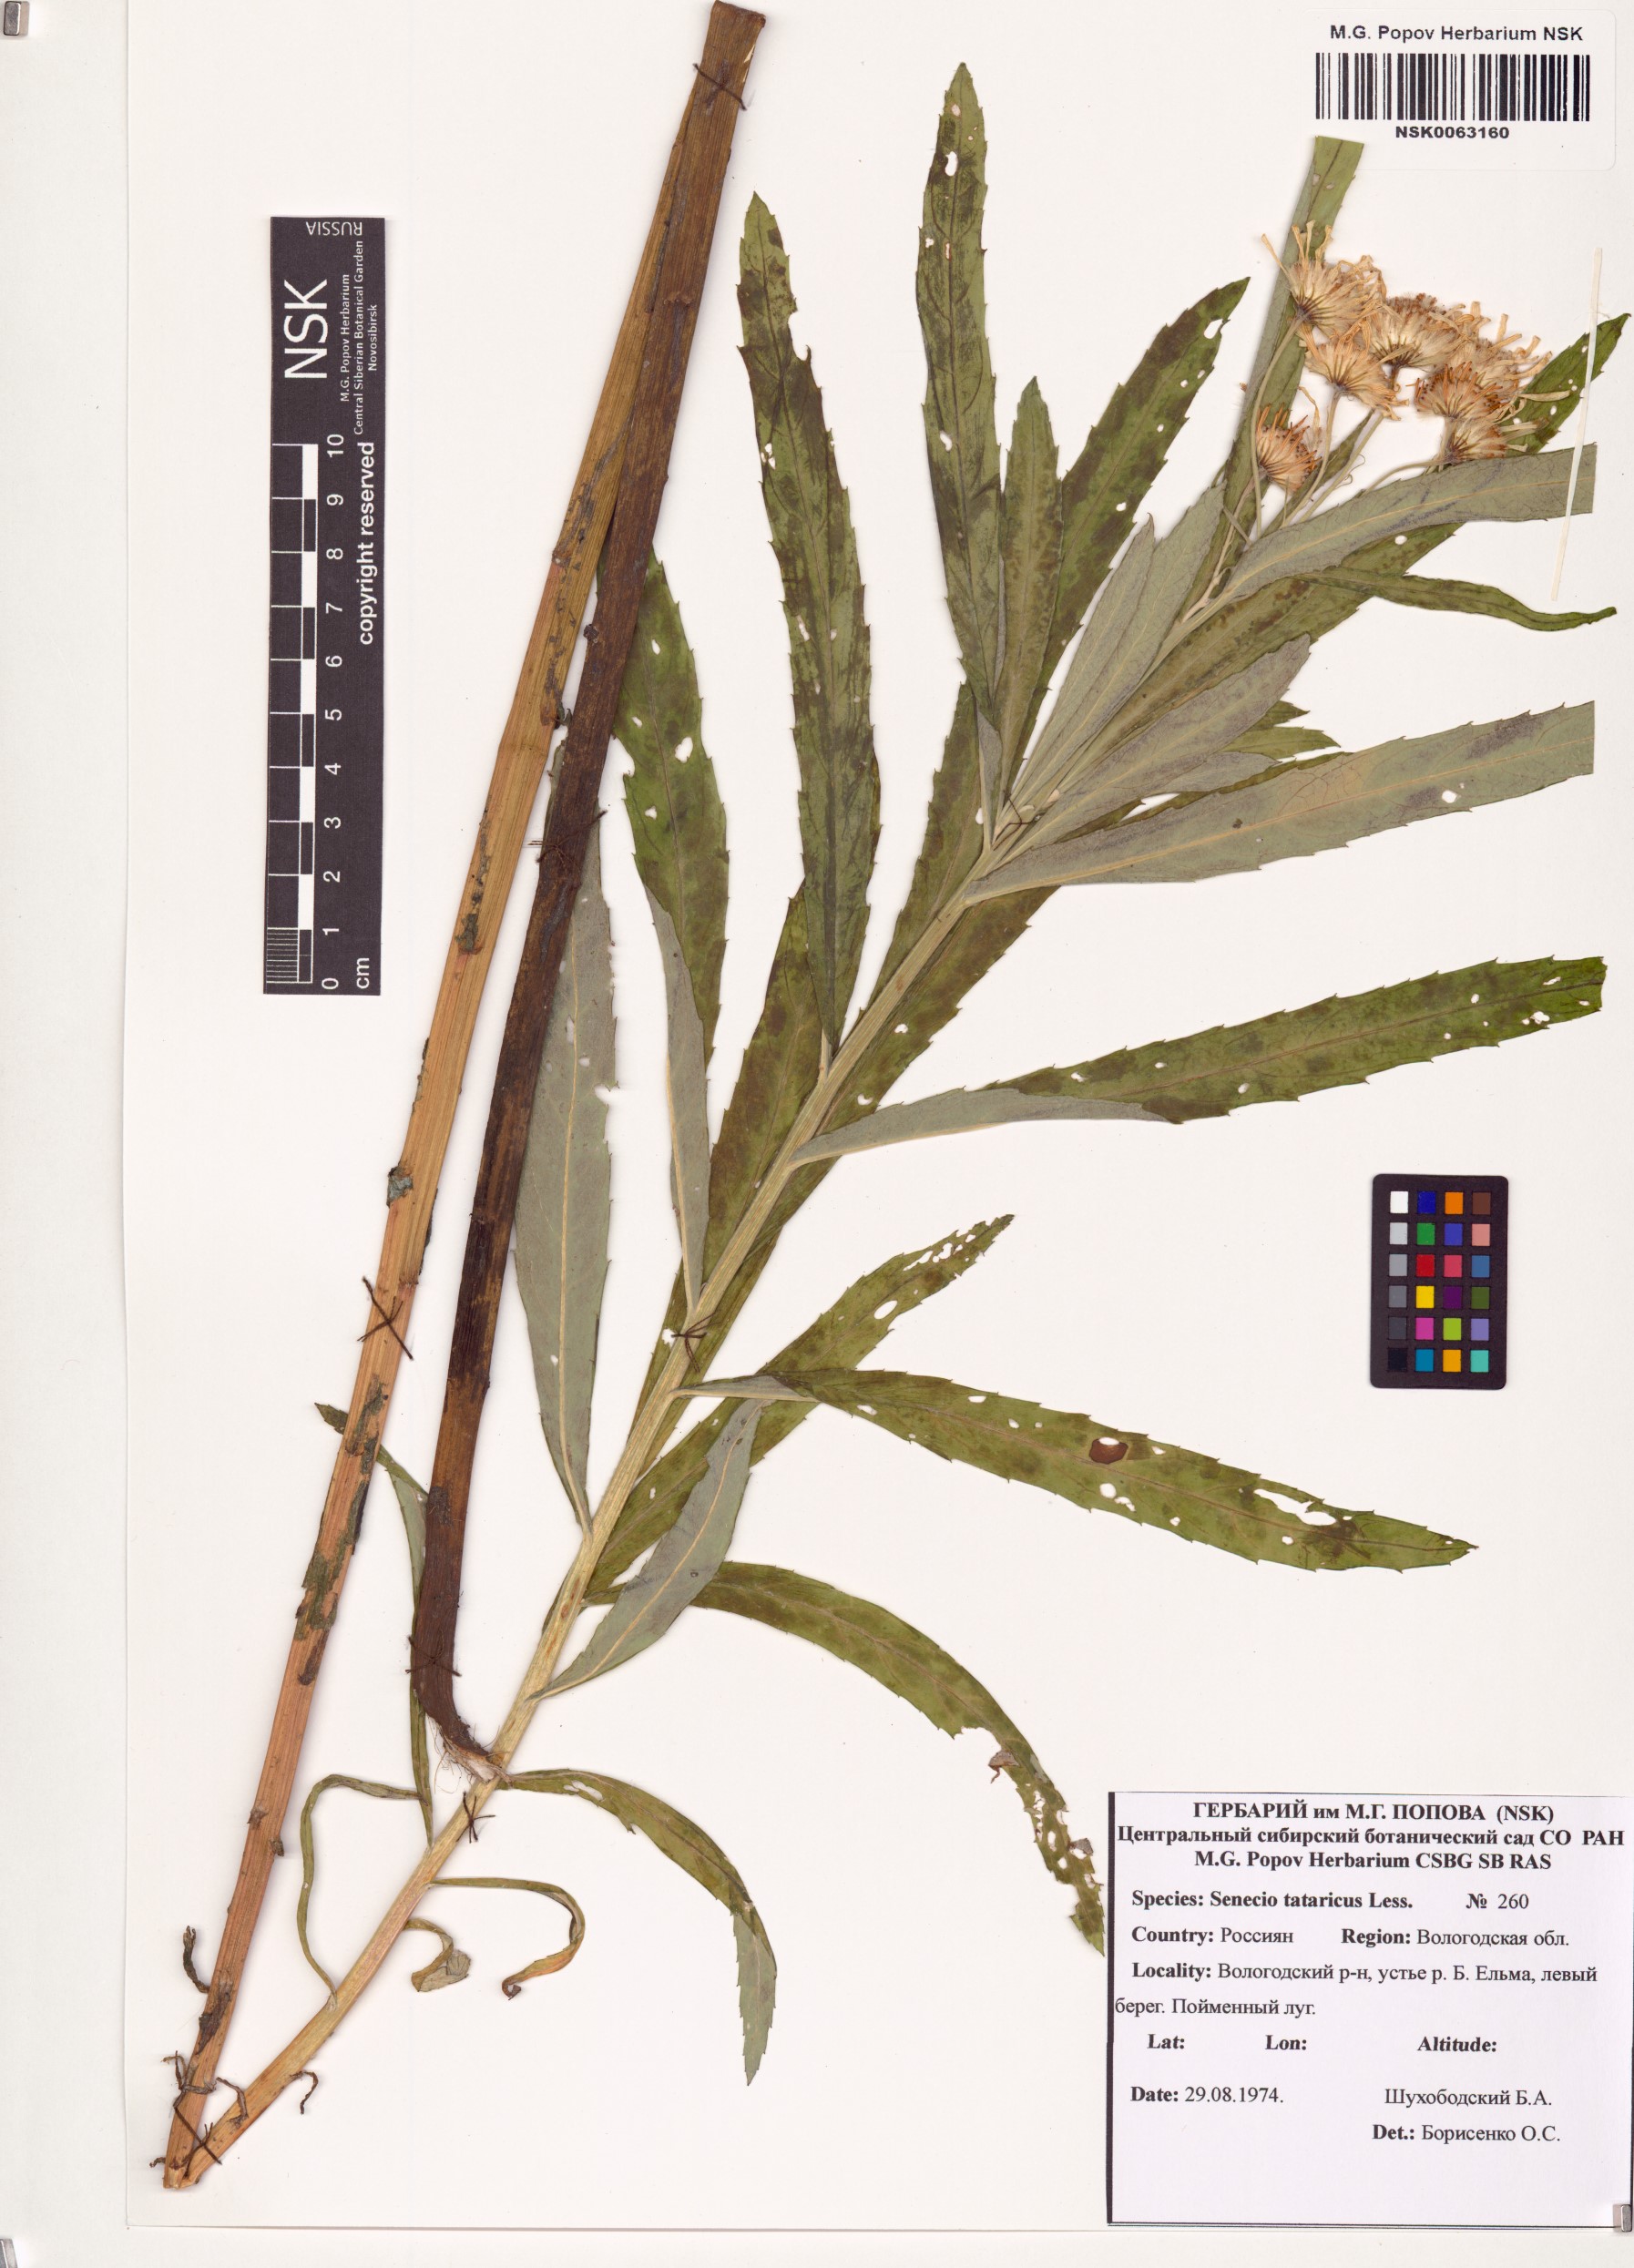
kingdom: Plantae
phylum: Tracheophyta
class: Magnoliopsida
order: Asterales
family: Asteraceae
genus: Jacobaea
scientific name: Jacobaea paludosa
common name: Fen ragwort
